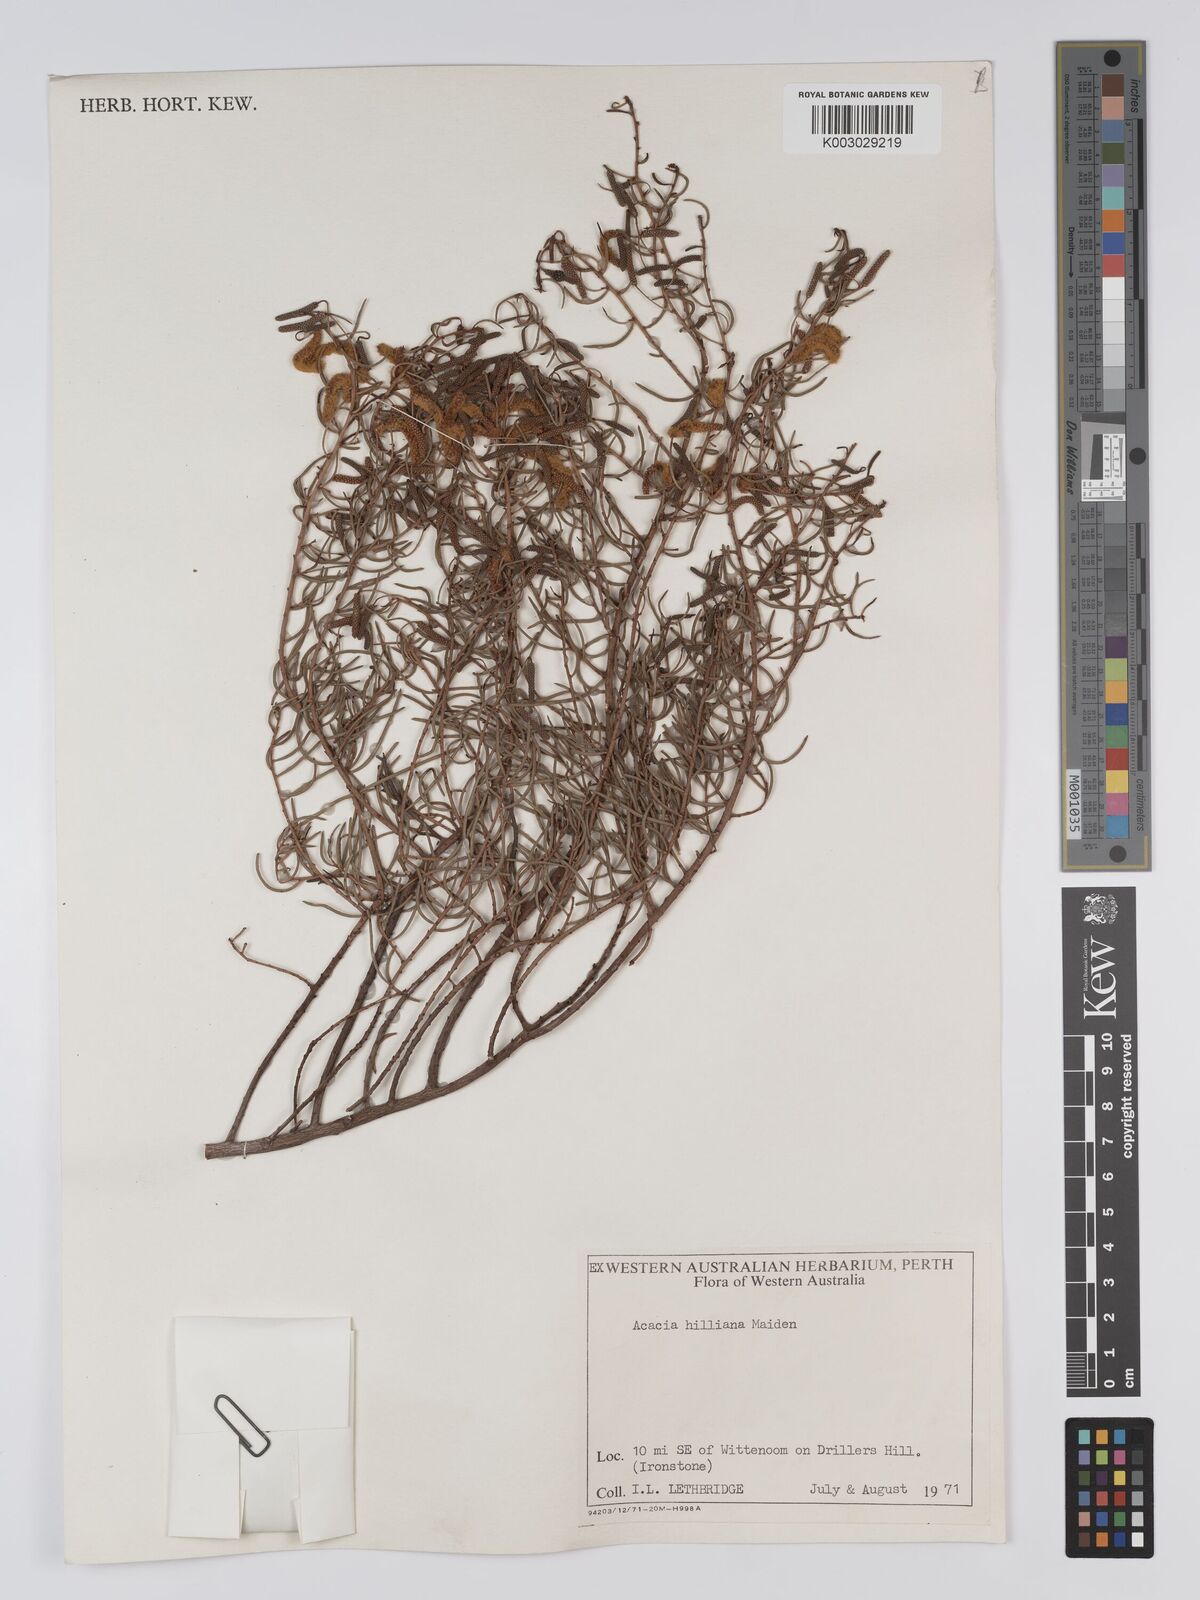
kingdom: Plantae
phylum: Tracheophyta
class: Magnoliopsida
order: Fabales
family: Fabaceae
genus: Acacia
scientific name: Acacia hilliana
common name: Hill's tabletop wattle
